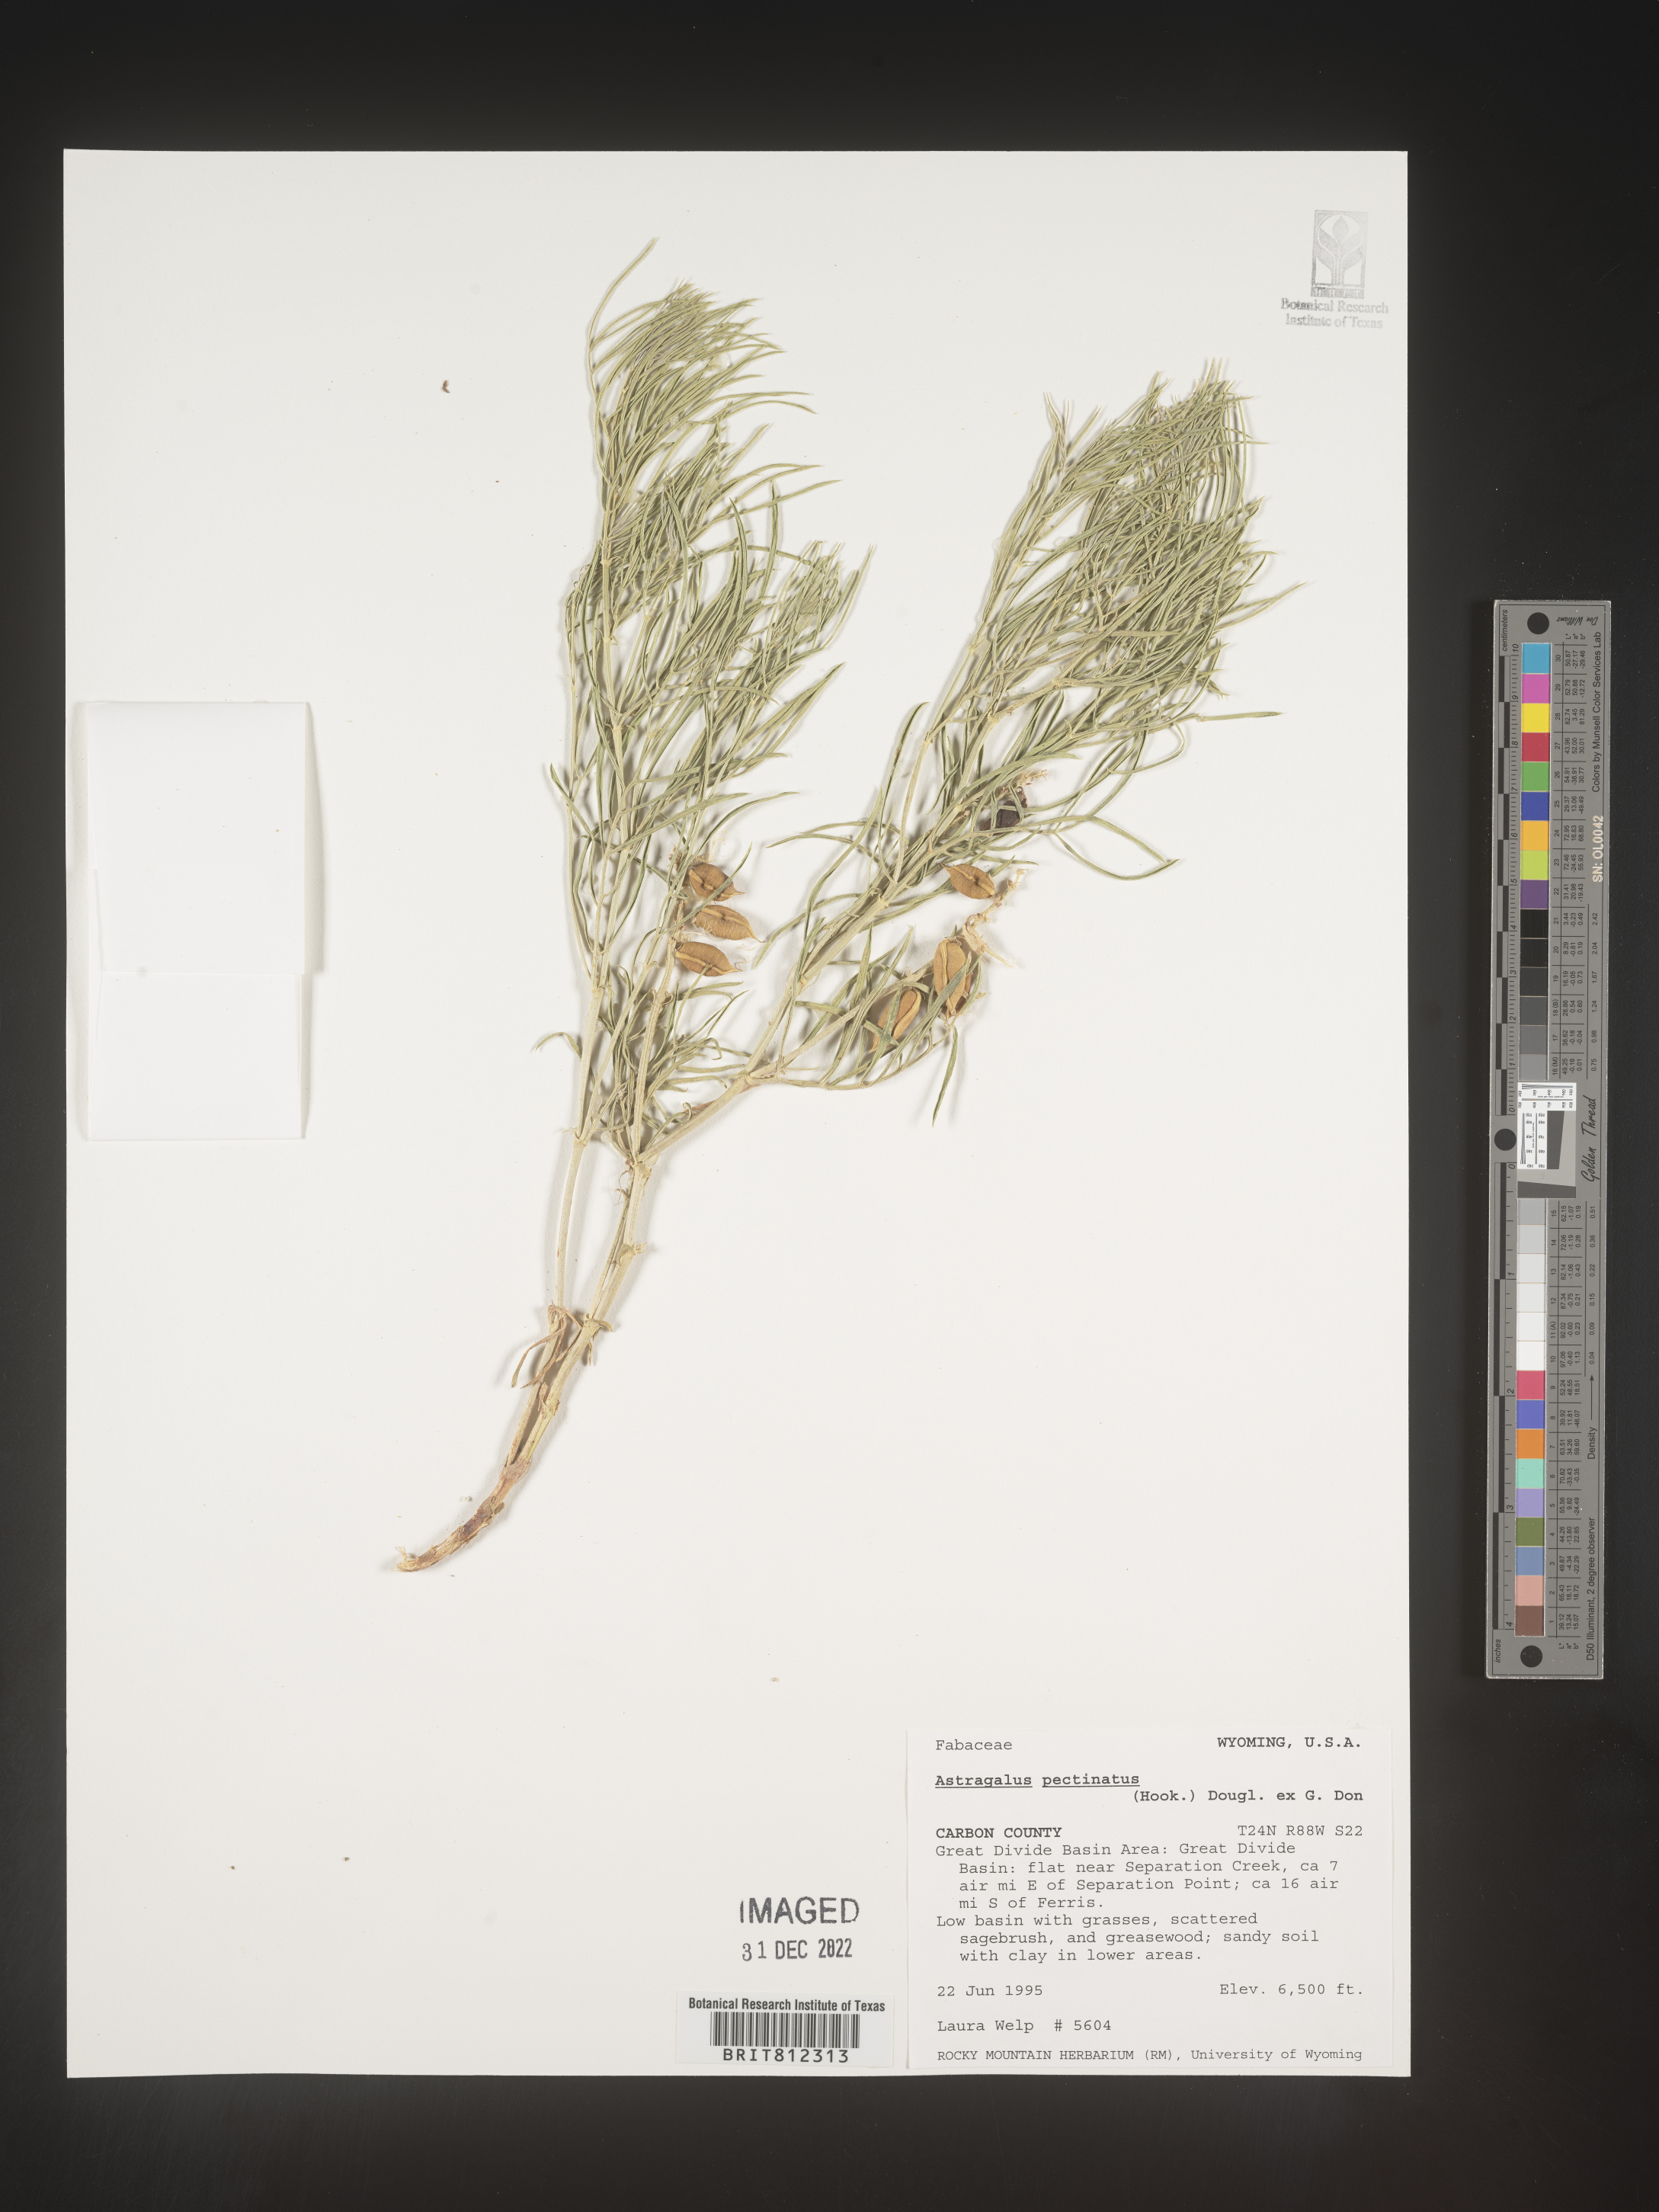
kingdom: Plantae
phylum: Tracheophyta
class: Magnoliopsida
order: Fabales
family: Fabaceae
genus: Astragalus
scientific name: Astragalus
